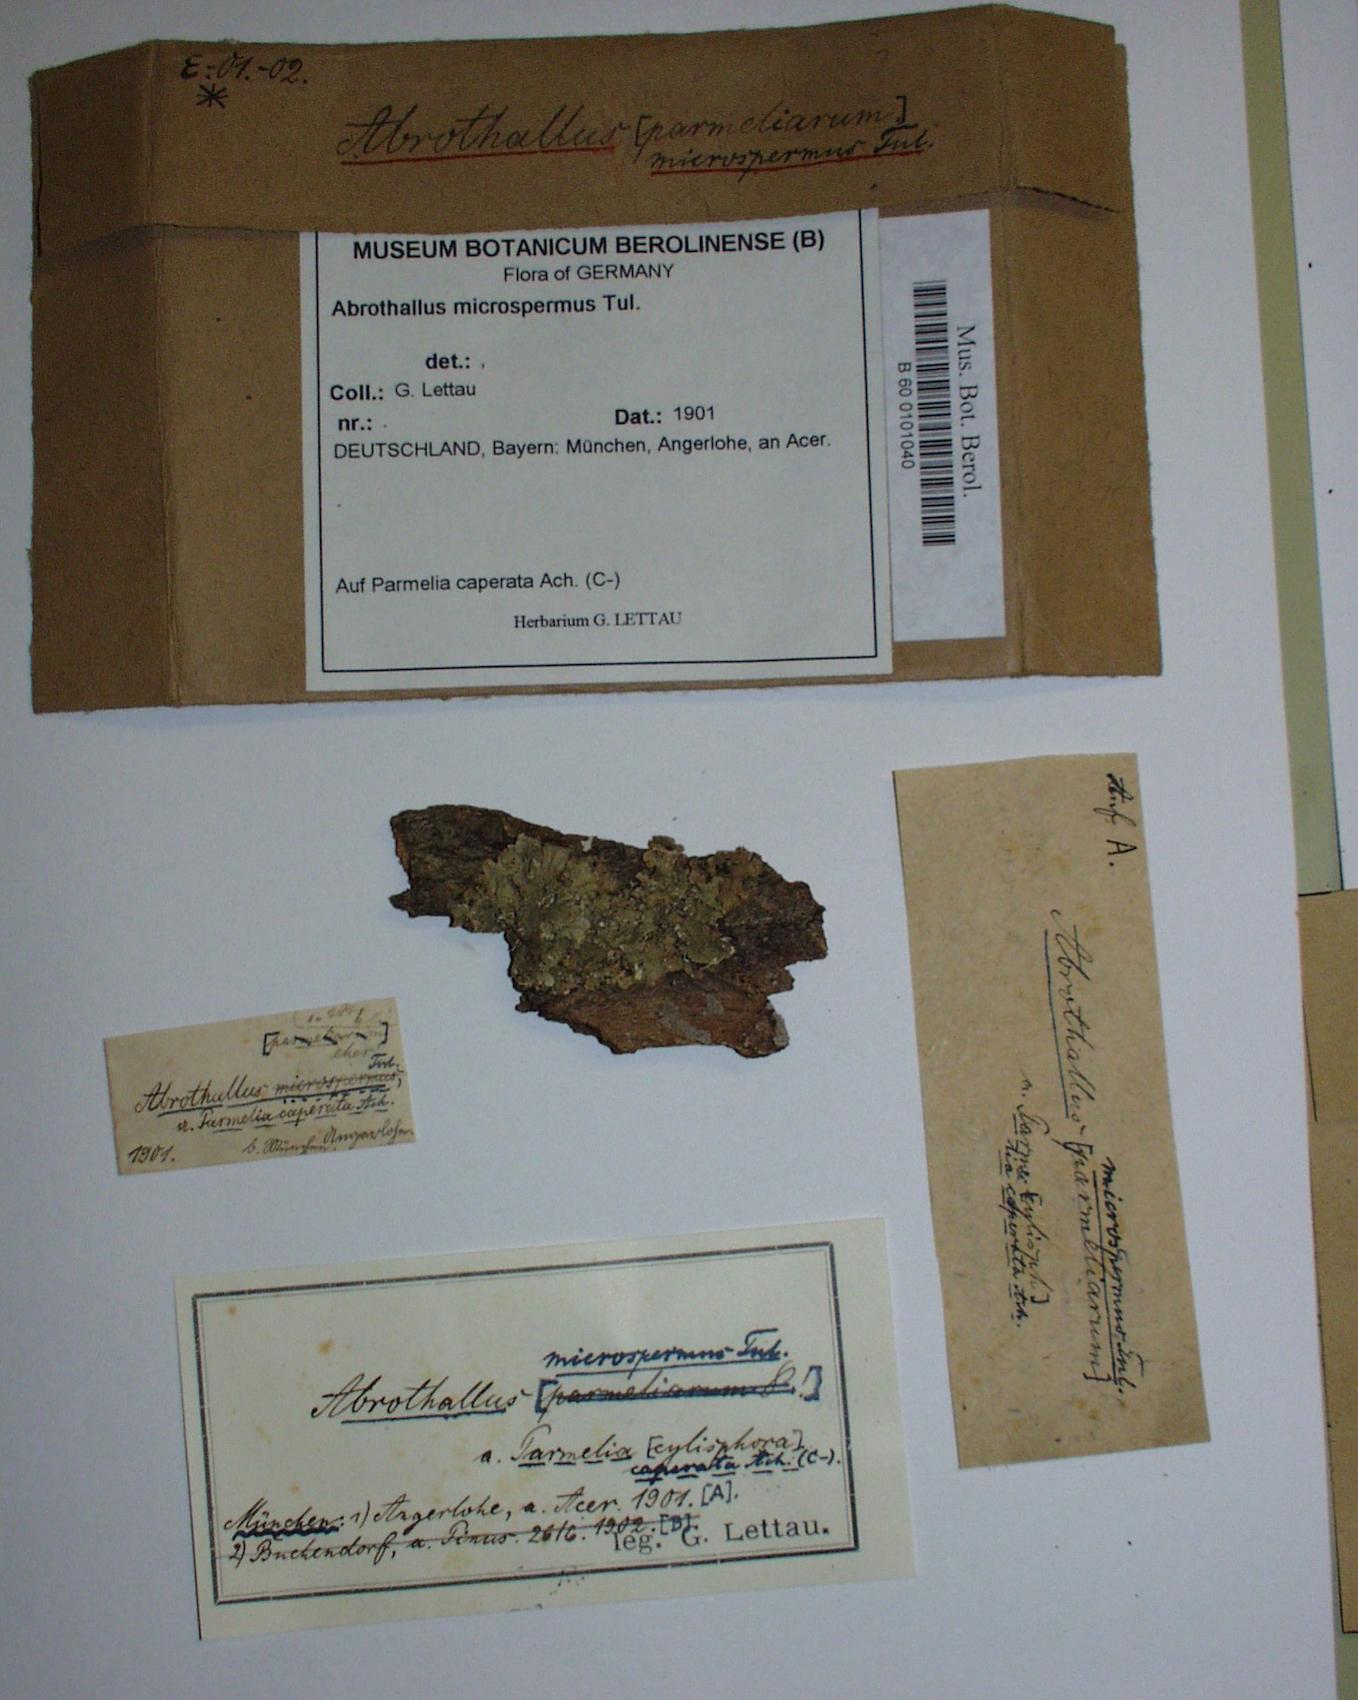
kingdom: Fungi
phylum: Ascomycota
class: Dothideomycetes
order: Abrothallales
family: Abrothallaceae
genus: Abrothallus
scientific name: Abrothallus microspermus
